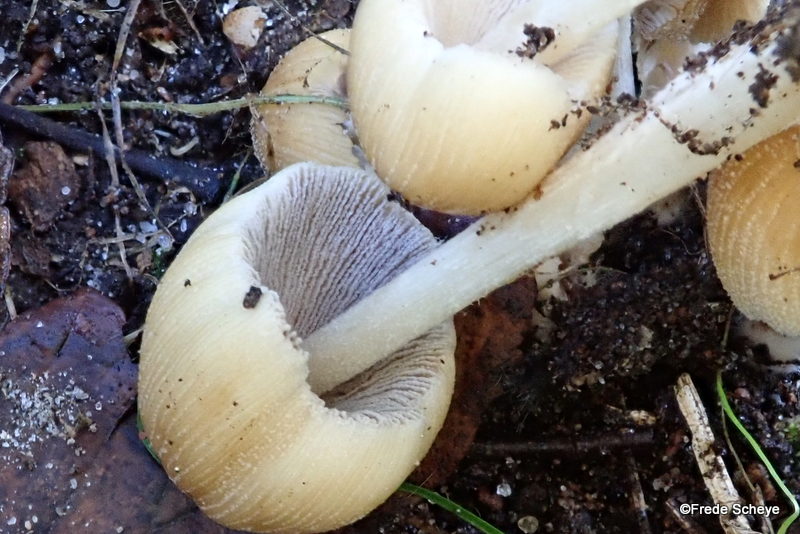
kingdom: Fungi
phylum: Basidiomycota
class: Agaricomycetes
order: Agaricales
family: Psathyrellaceae
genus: Coprinellus
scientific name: Coprinellus micaceus
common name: glimmer-blækhat
